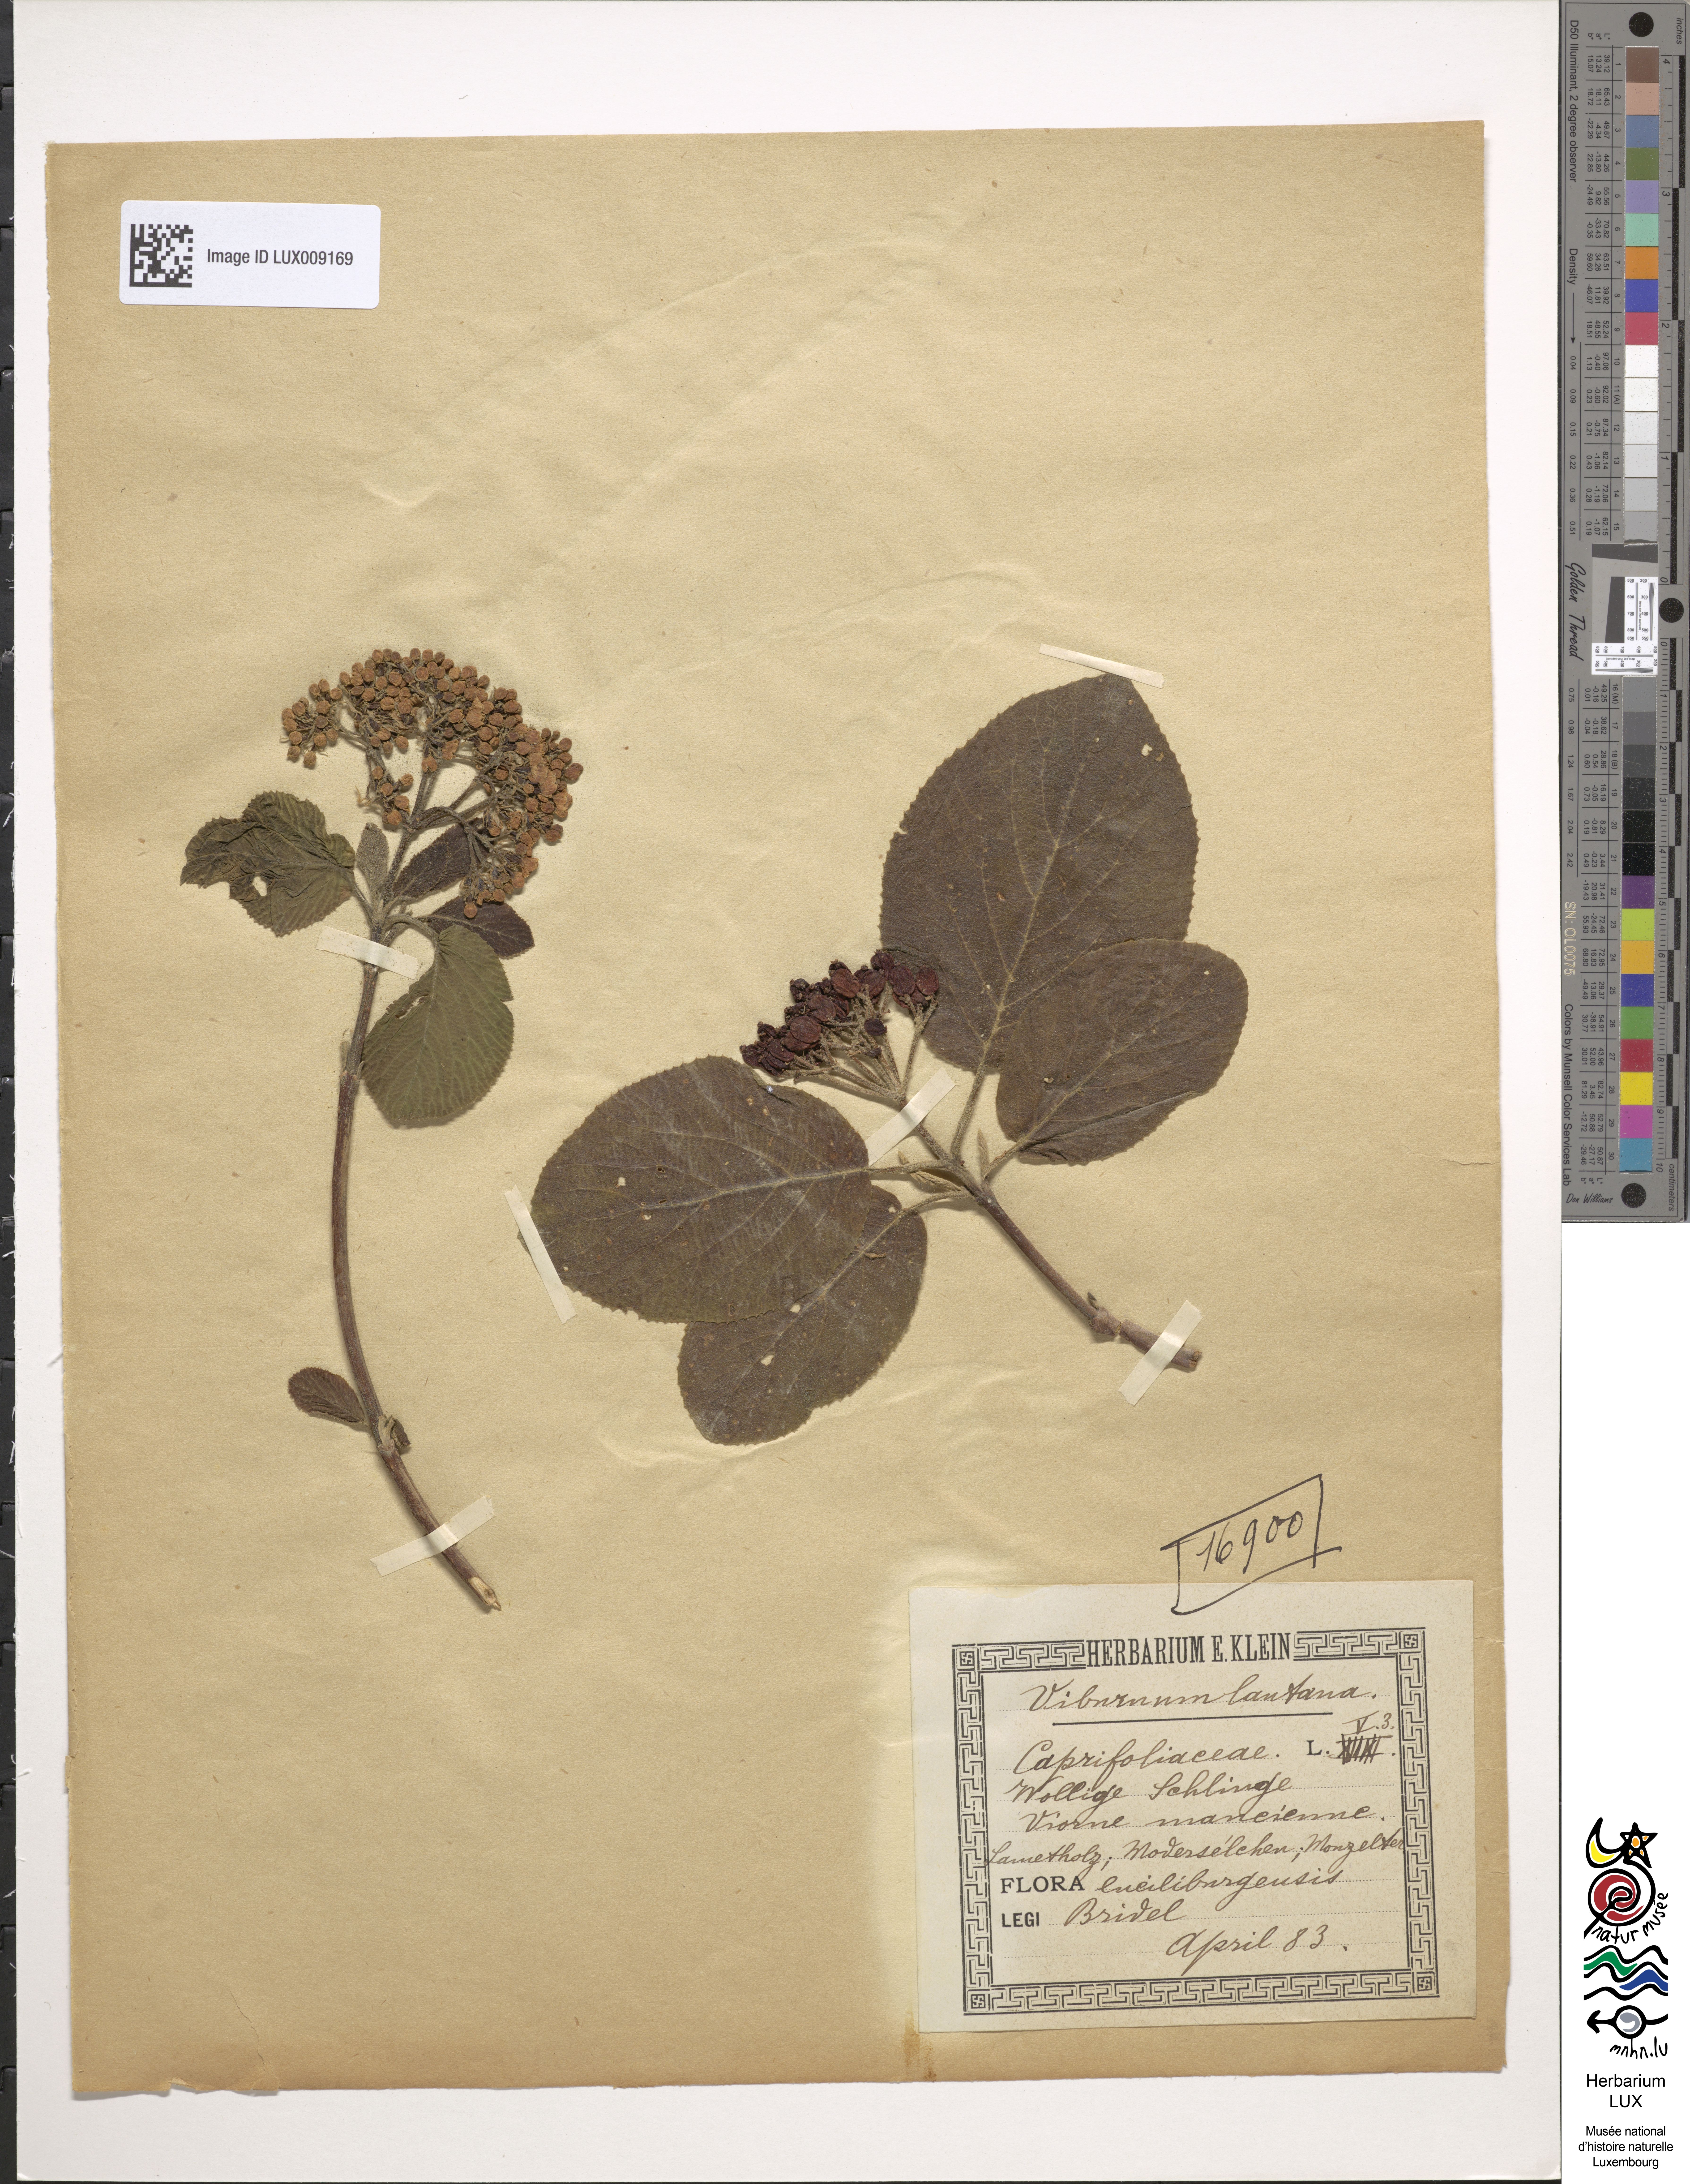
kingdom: Plantae
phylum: Tracheophyta
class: Magnoliopsida
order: Dipsacales
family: Viburnaceae
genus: Viburnum
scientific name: Viburnum lantana
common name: Wayfaring tree
